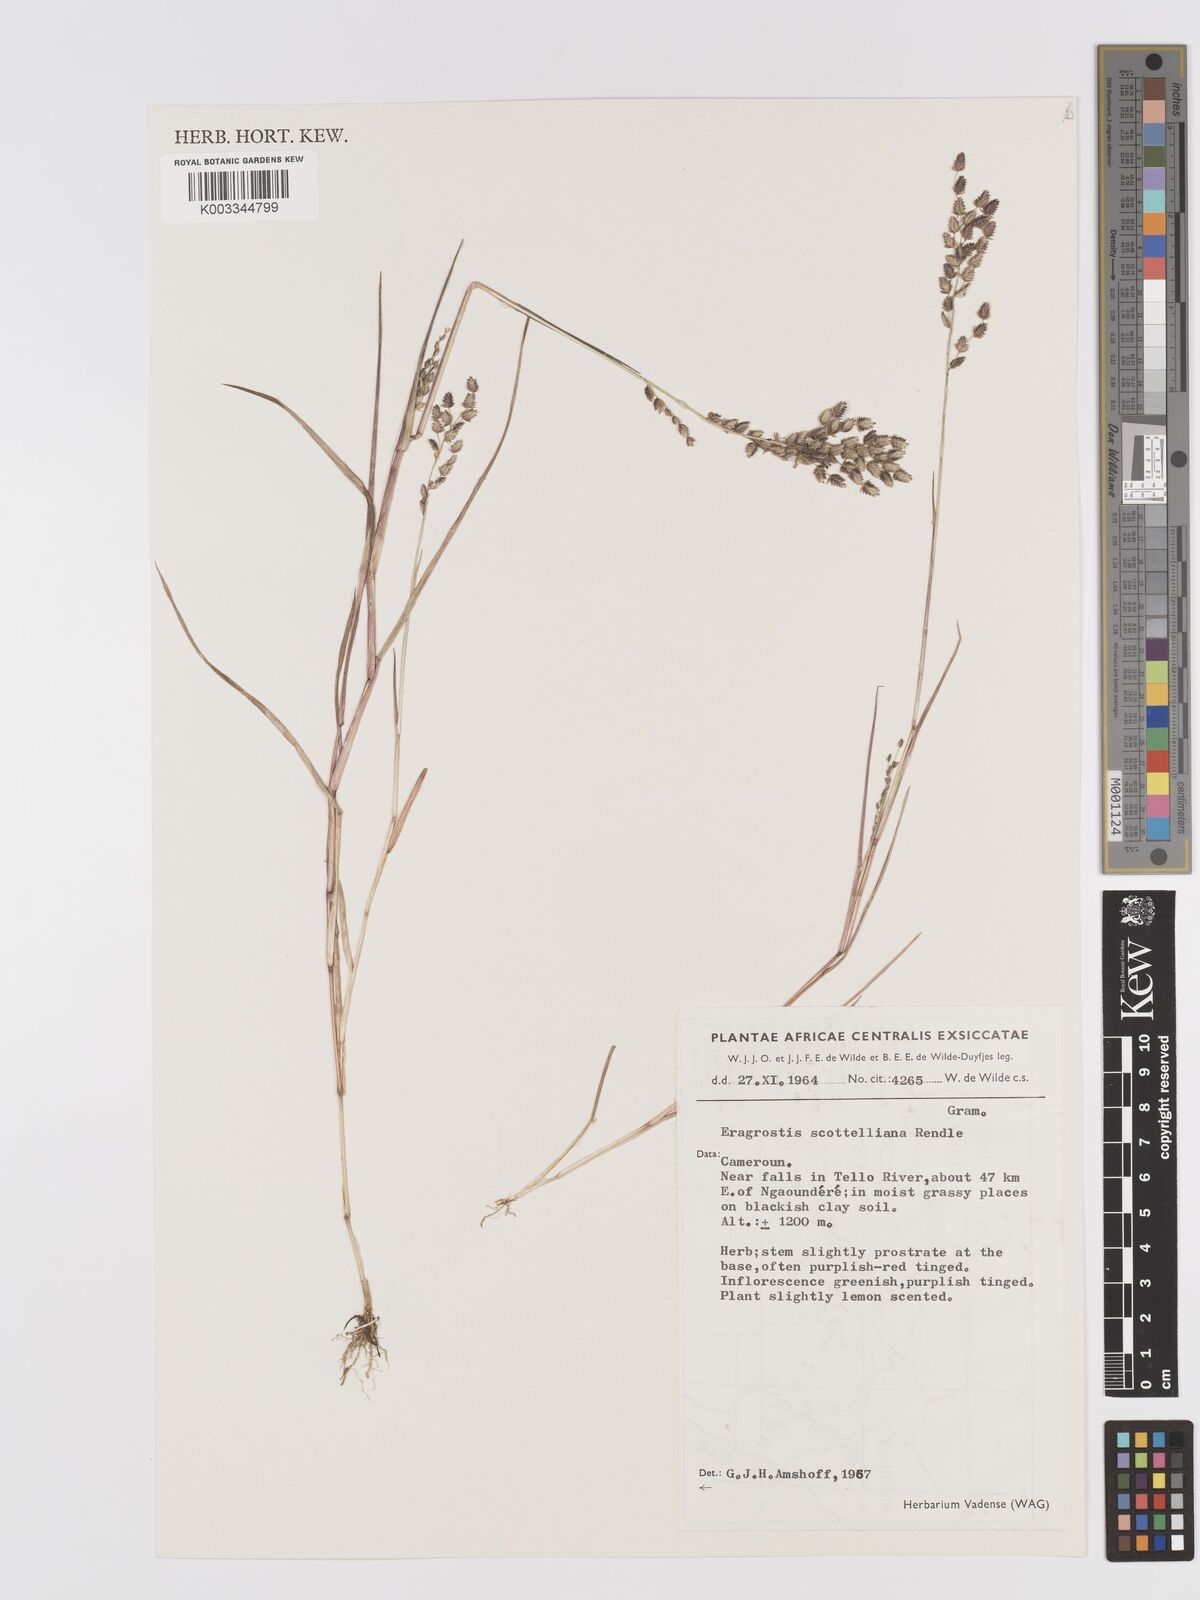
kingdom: Plantae
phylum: Tracheophyta
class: Liliopsida
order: Poales
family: Poaceae
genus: Eragrostis
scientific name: Eragrostis scotelliana
